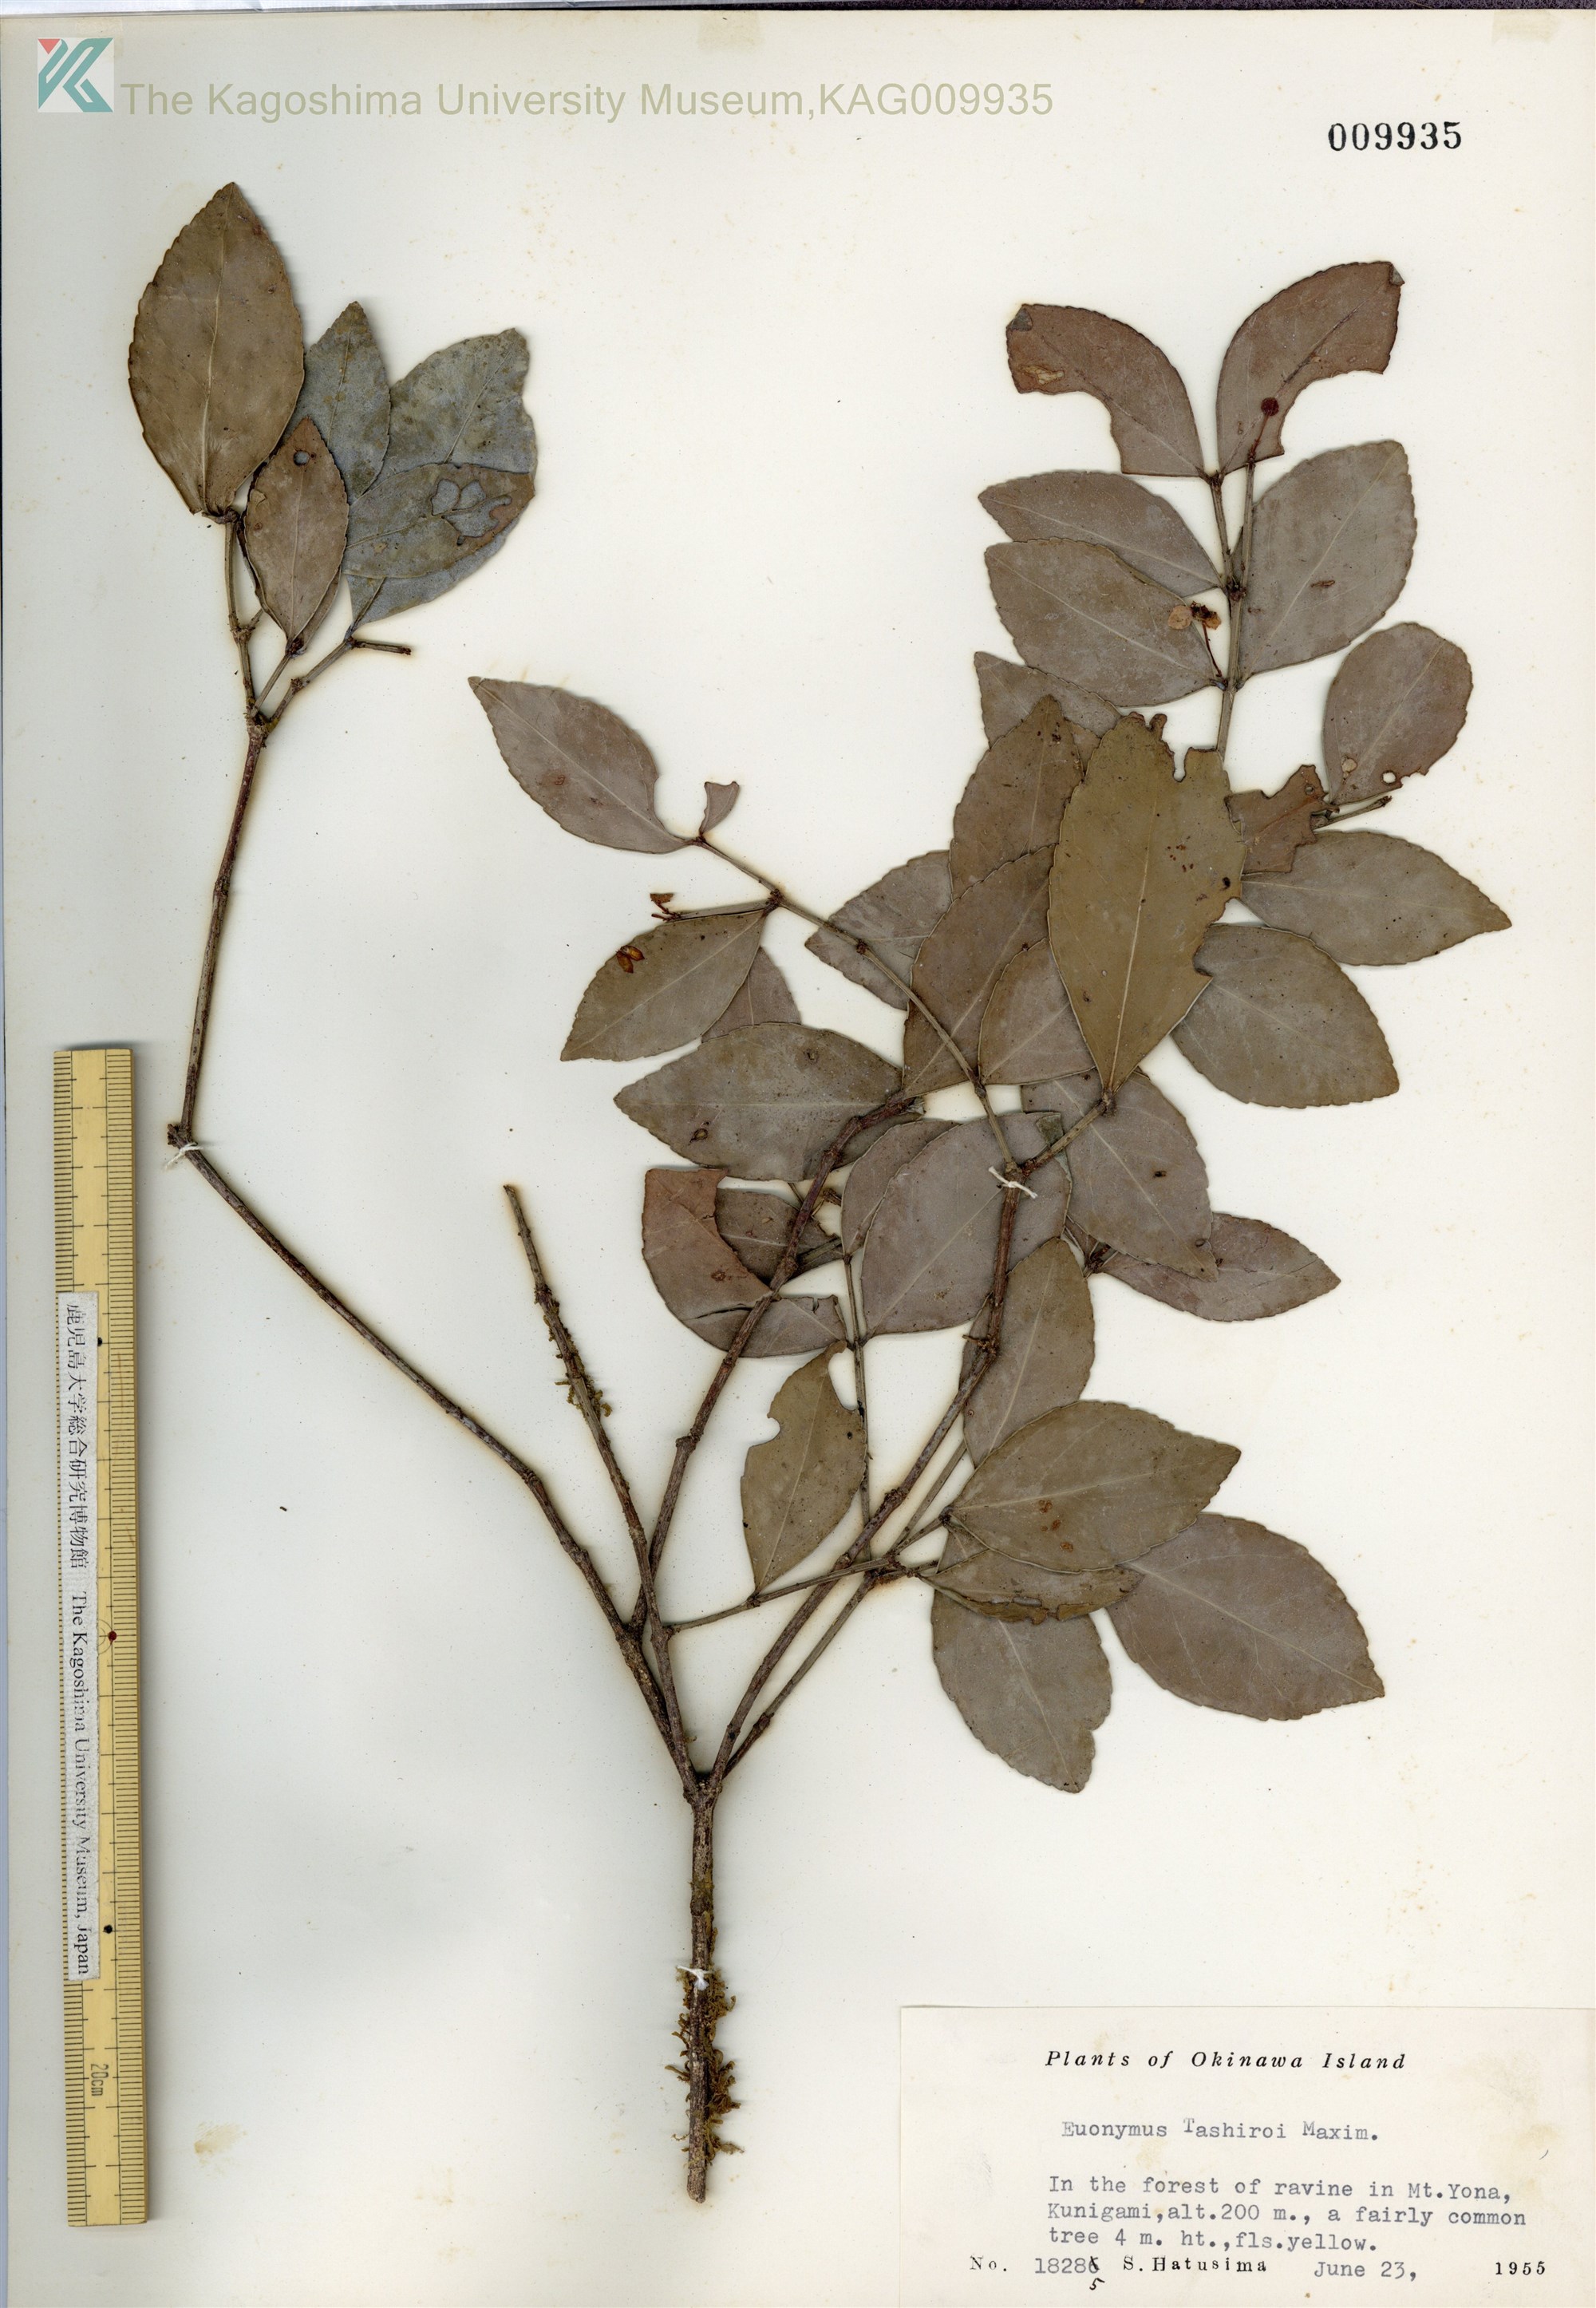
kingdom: Plantae
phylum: Tracheophyta
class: Magnoliopsida
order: Celastrales
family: Celastraceae
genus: Euonymus
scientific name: Euonymus tashiroi
